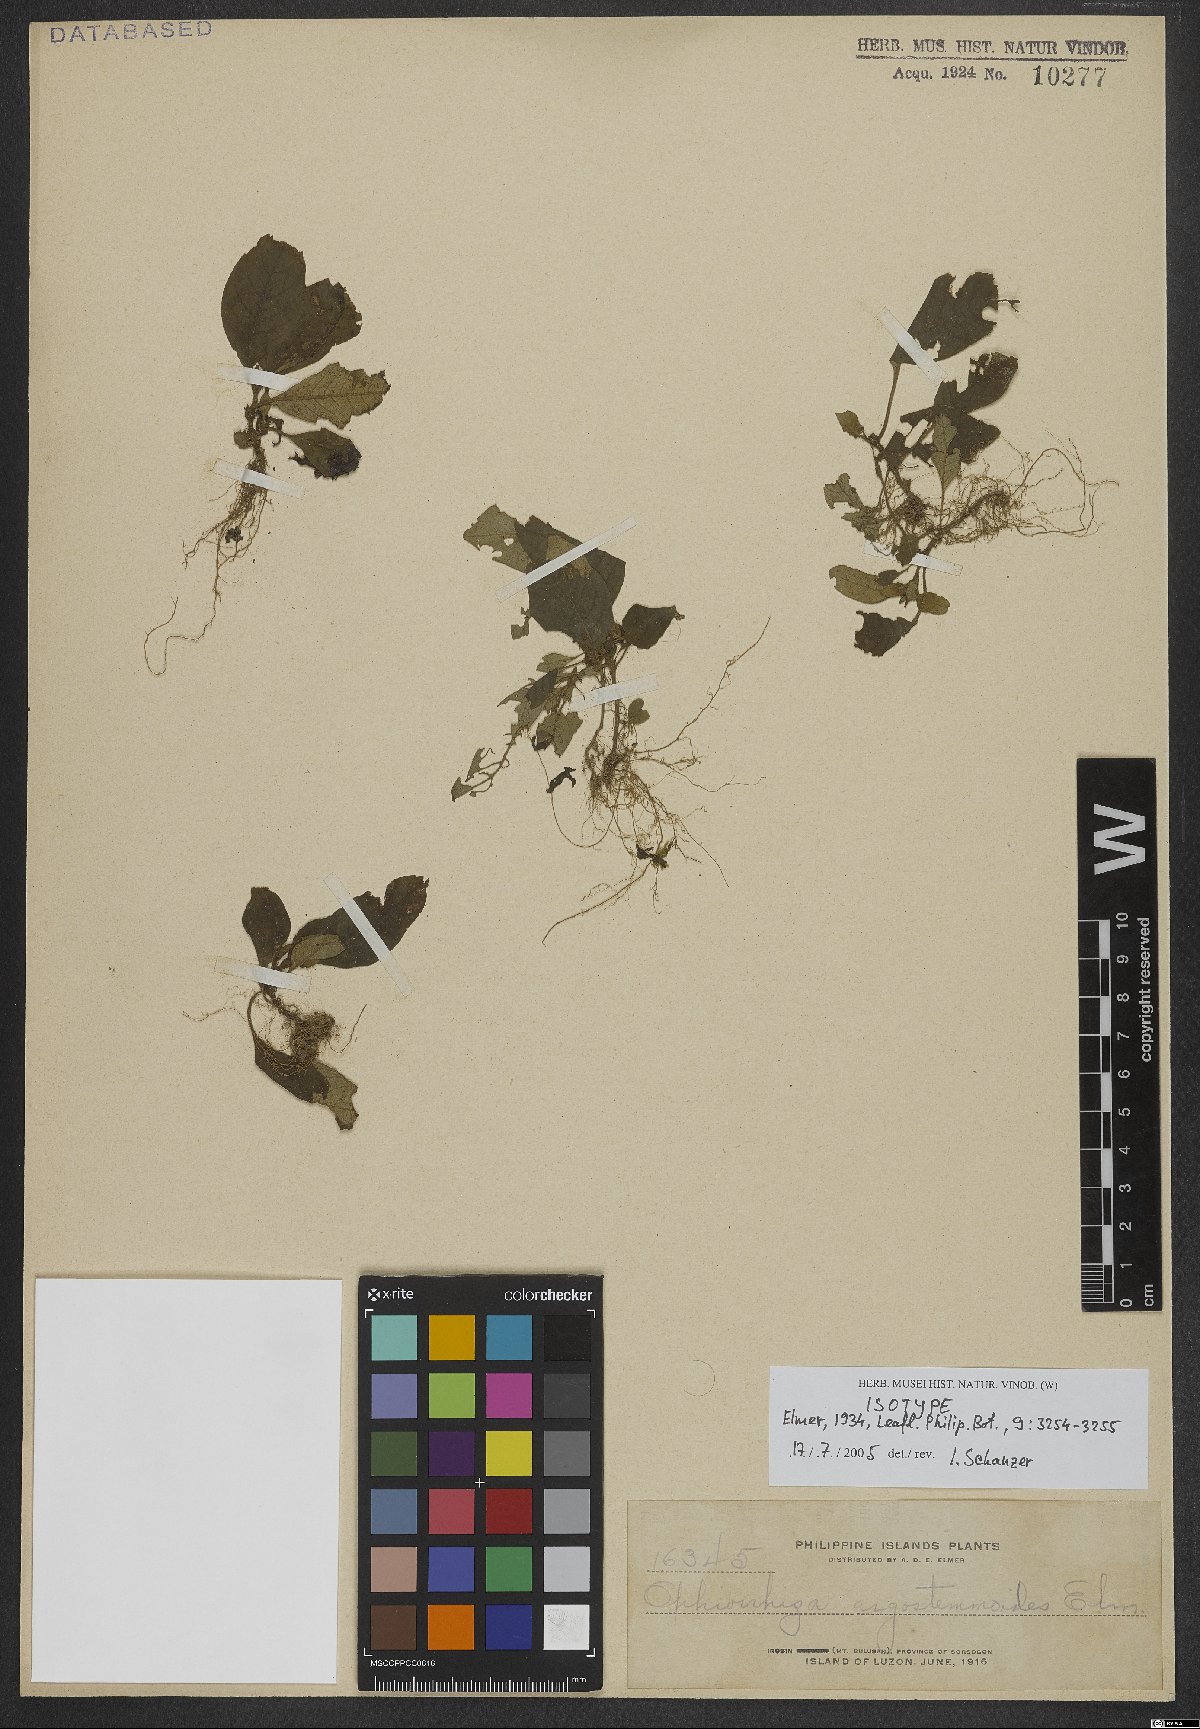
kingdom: Plantae
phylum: Tracheophyta
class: Magnoliopsida
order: Gentianales
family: Rubiaceae
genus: Ophiorrhiza
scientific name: Ophiorrhiza argostemmoides
